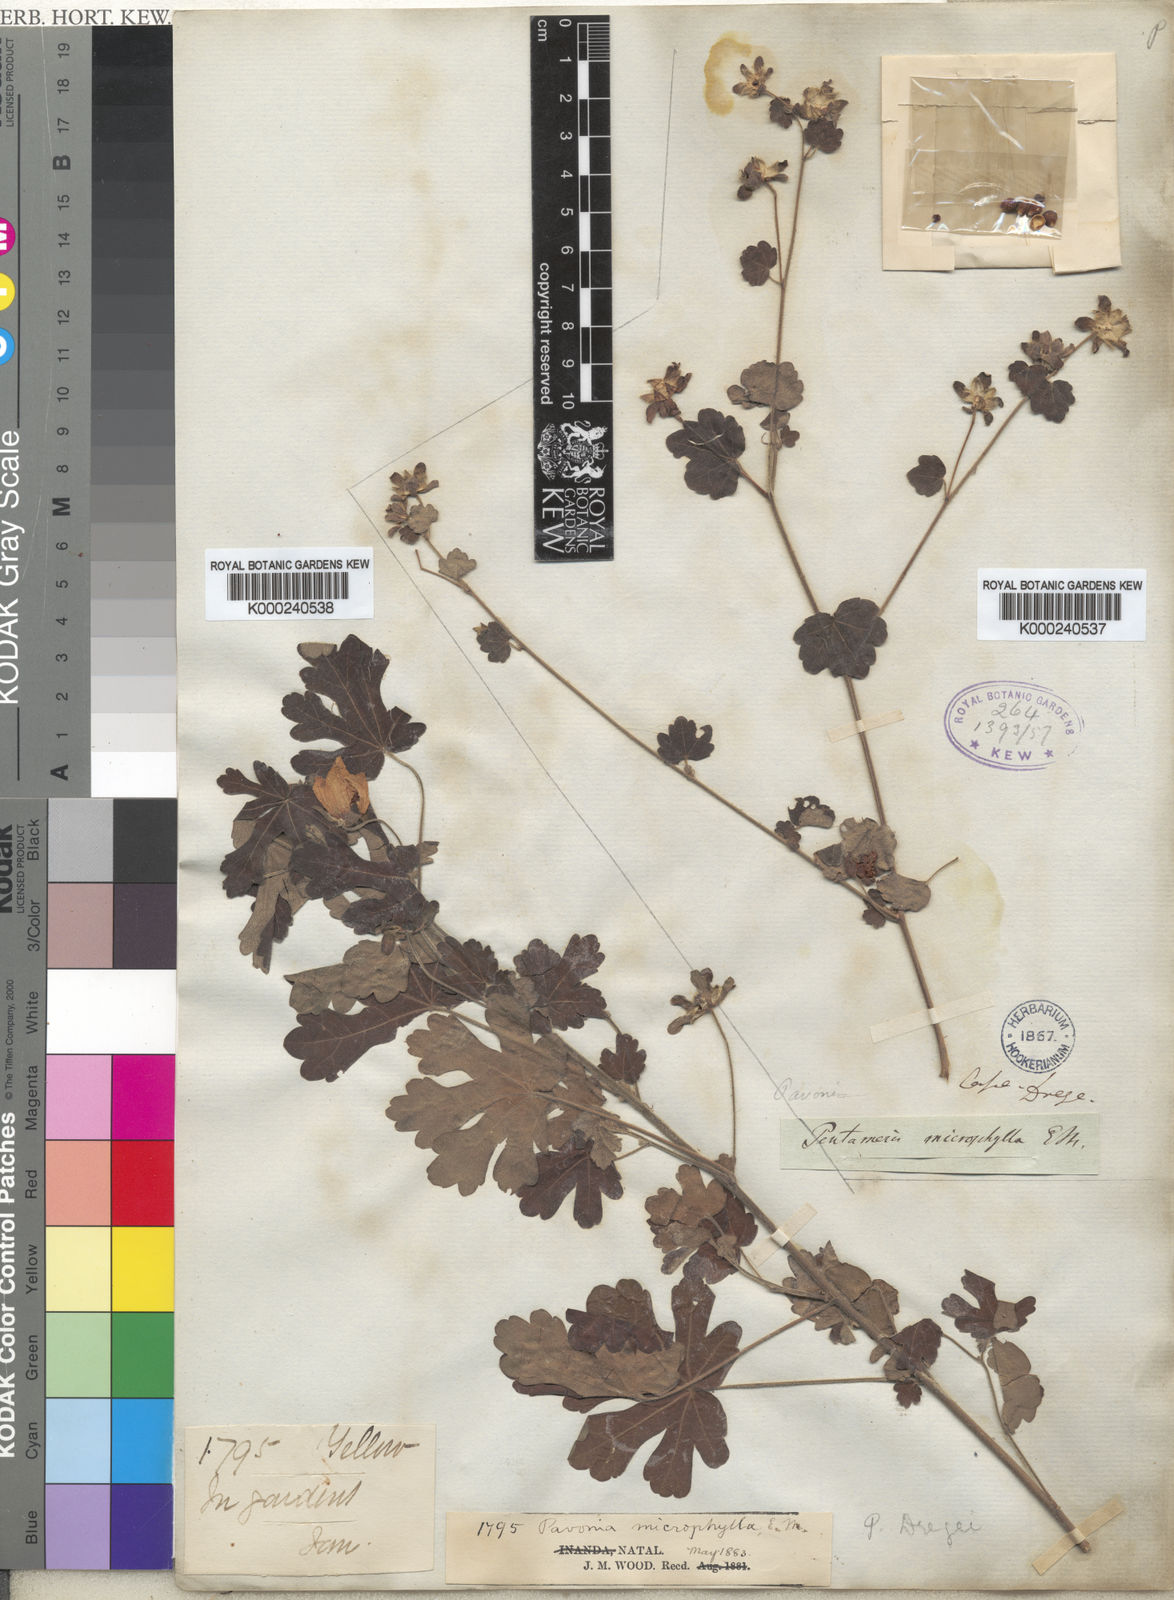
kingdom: Plantae
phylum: Tracheophyta
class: Magnoliopsida
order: Malvales
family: Malvaceae
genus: Pavonia
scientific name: Pavonia dregei
